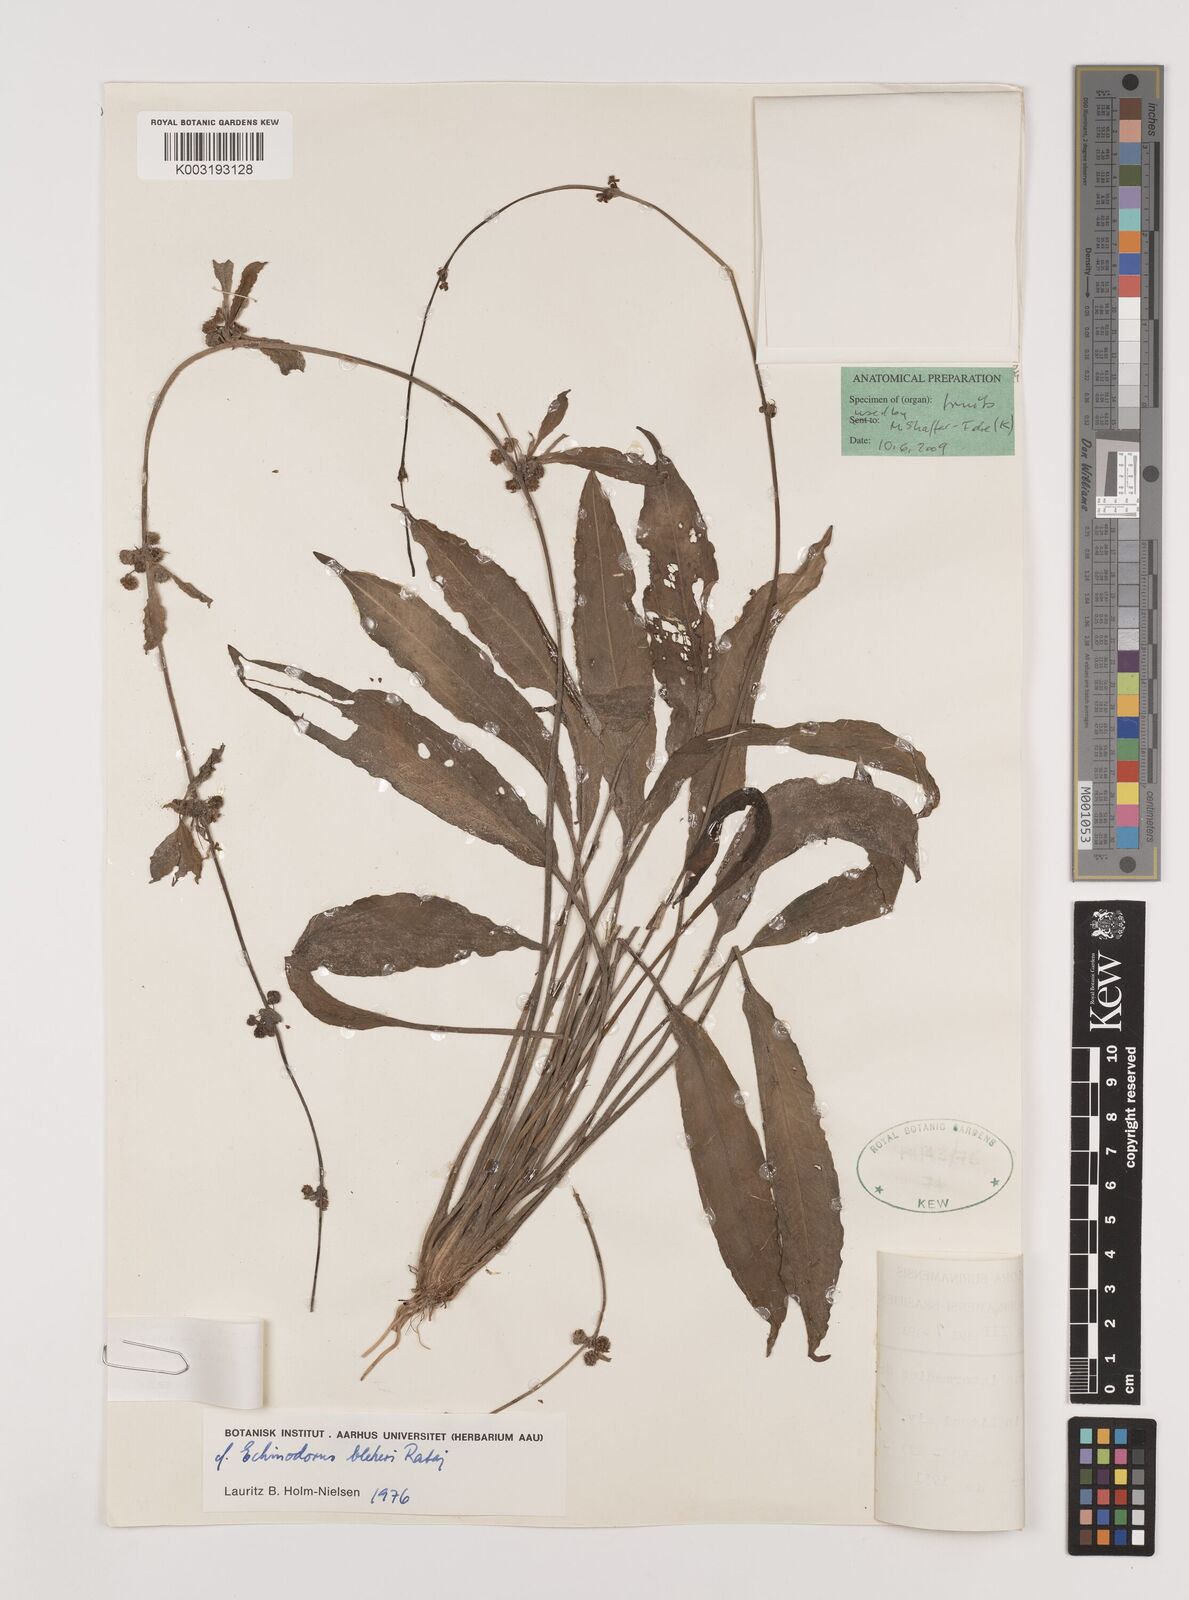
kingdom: Plantae
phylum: Tracheophyta
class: Liliopsida
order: Alismatales
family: Alismataceae
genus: Aquarius
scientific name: Aquarius grisebachii
